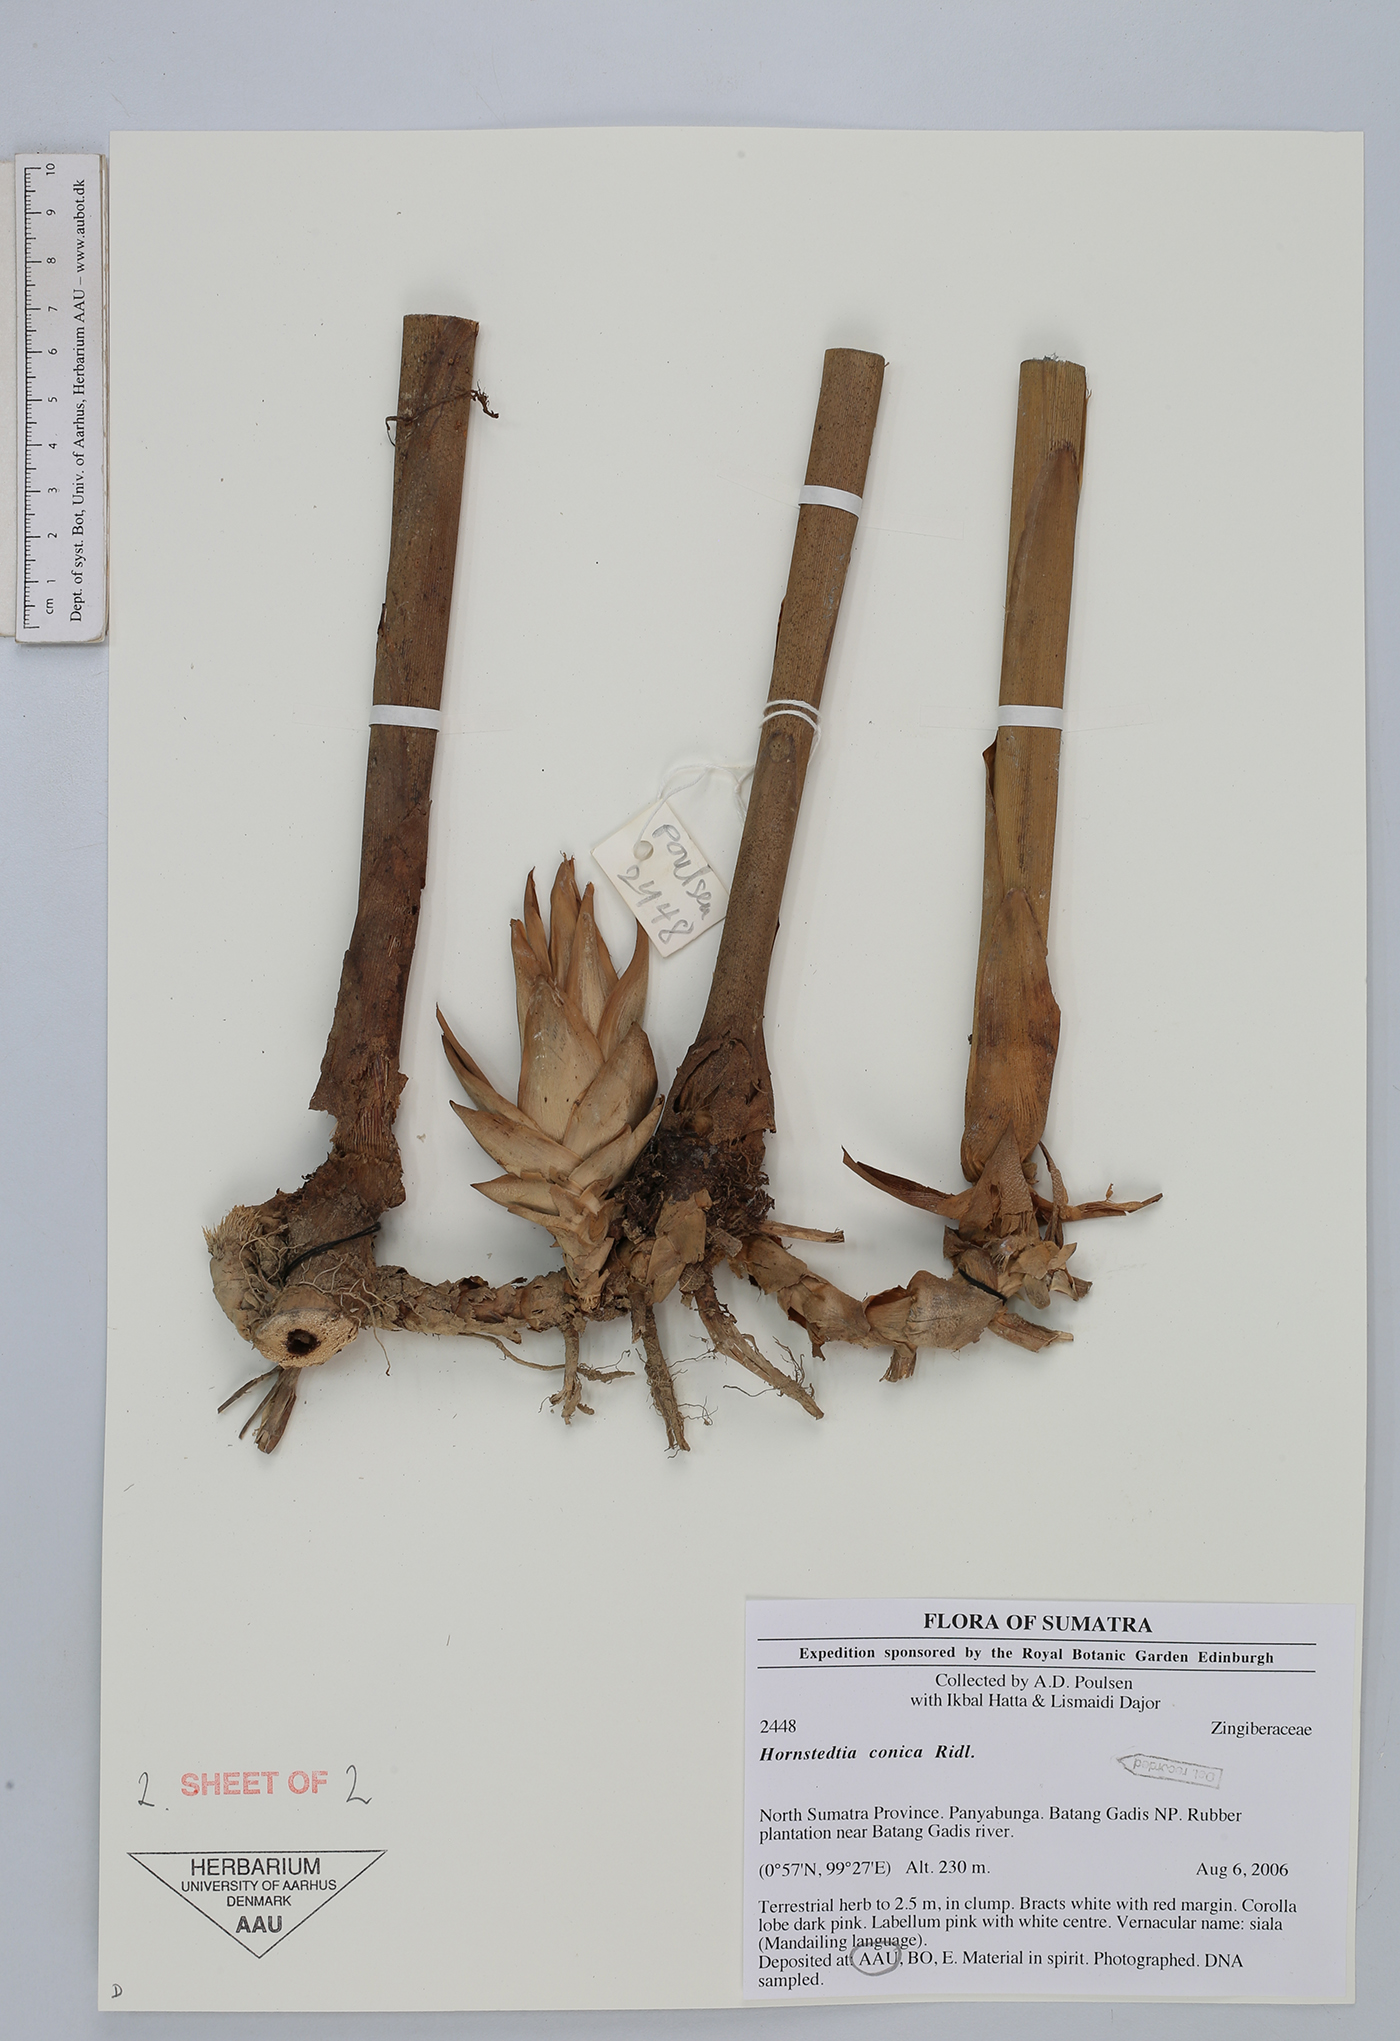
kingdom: Plantae
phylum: Tracheophyta
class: Liliopsida
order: Zingiberales
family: Zingiberaceae
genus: Hornstedtia
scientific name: Hornstedtia conica
